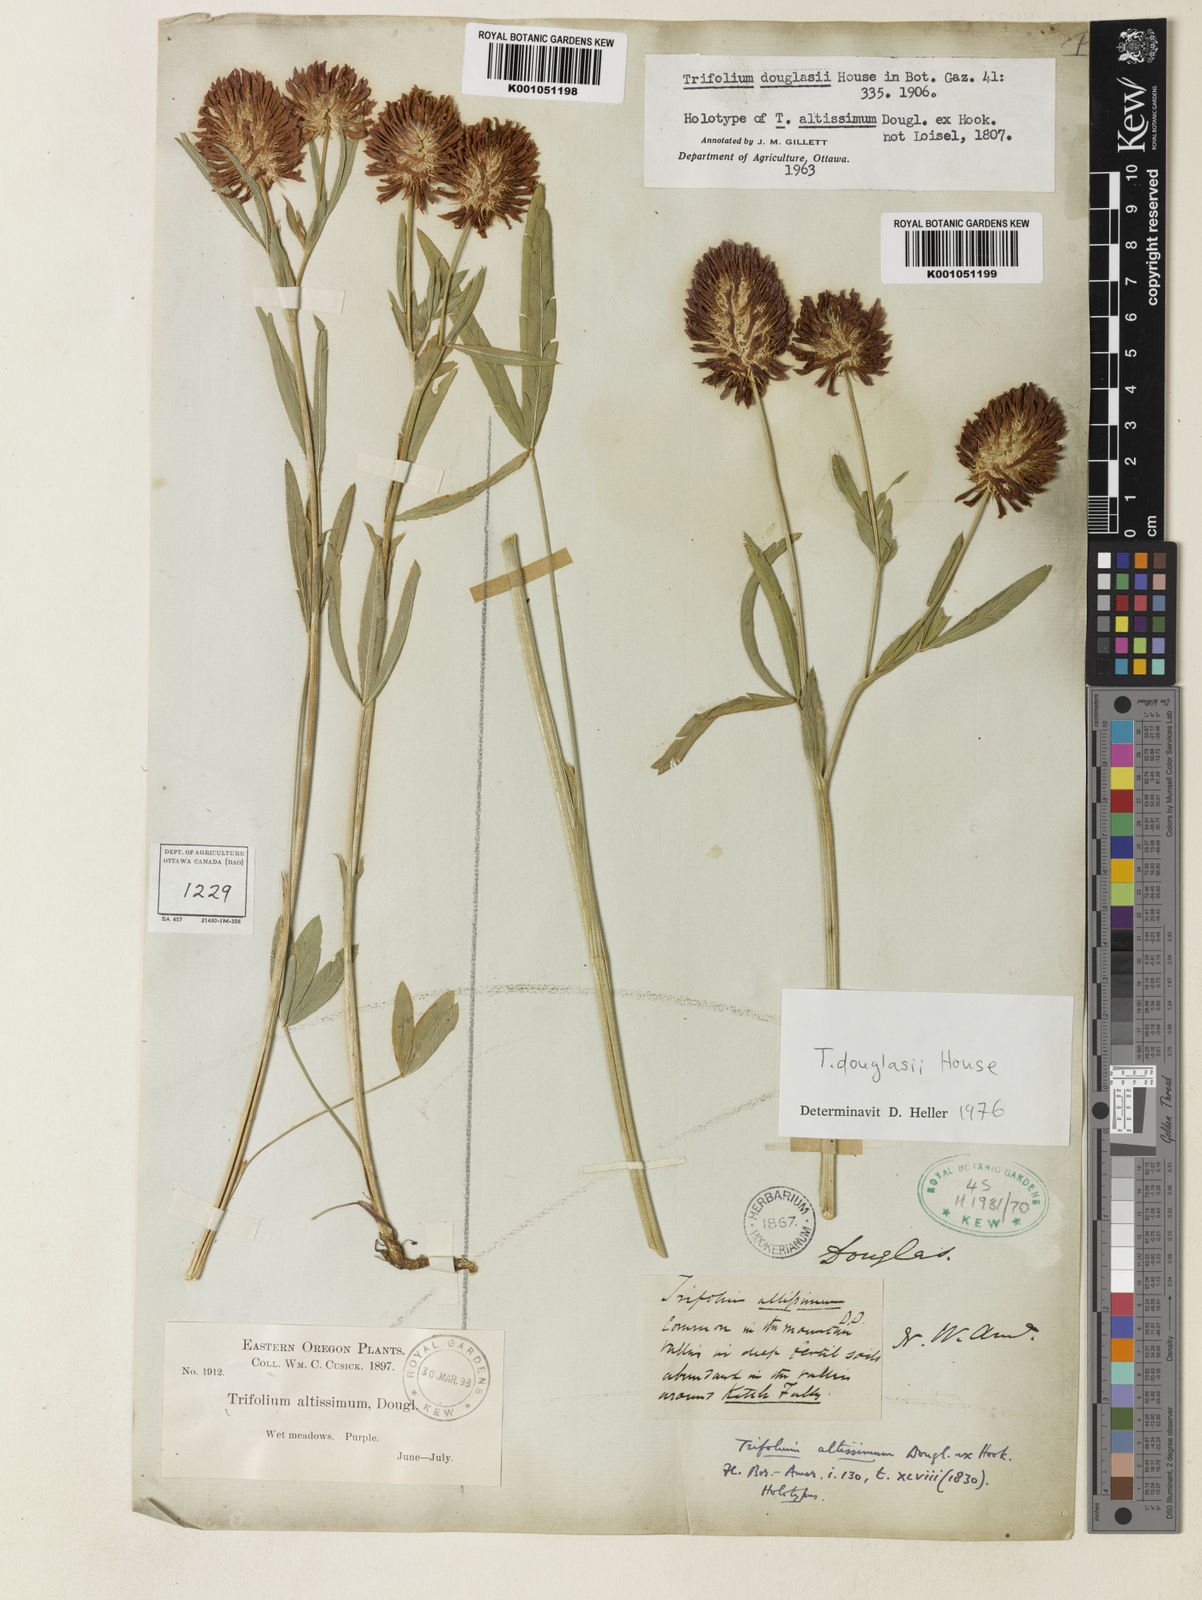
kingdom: Plantae
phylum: Tracheophyta
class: Magnoliopsida
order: Fabales
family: Fabaceae
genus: Trifolium
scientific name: Trifolium douglasii
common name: Douglas's clover
